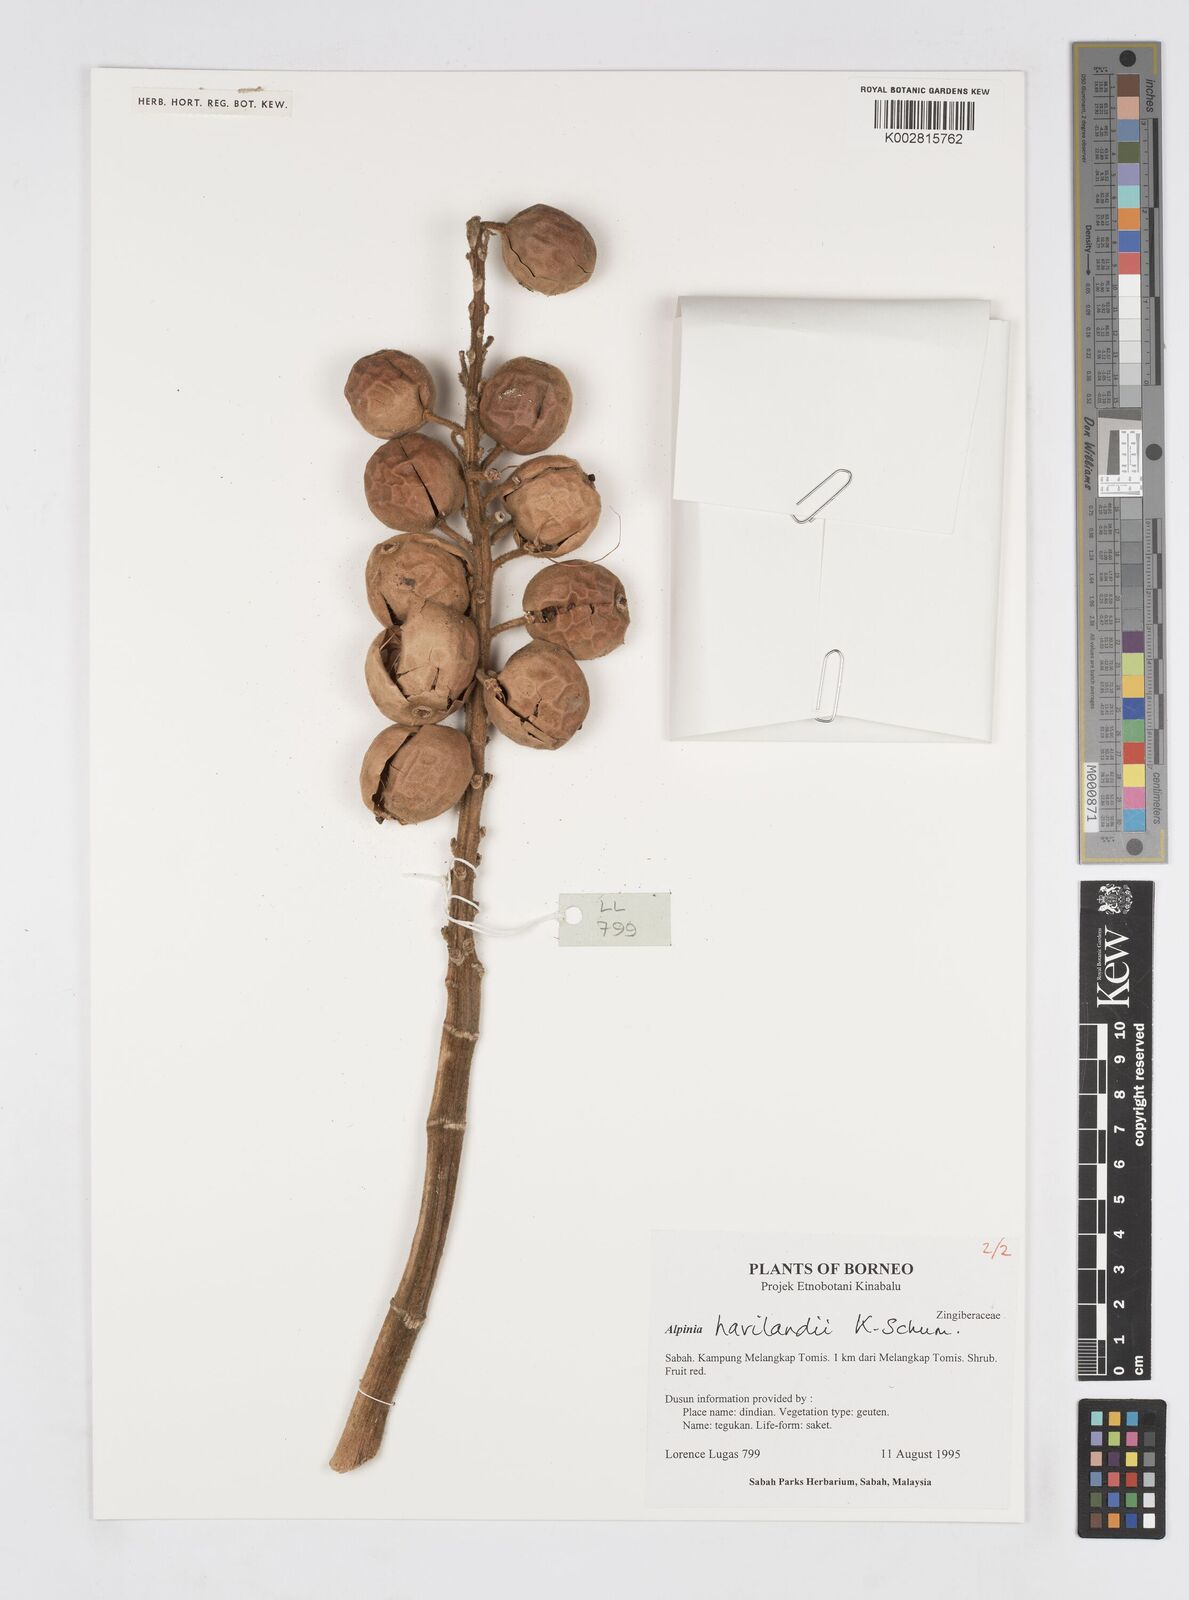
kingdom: Plantae
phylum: Tracheophyta
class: Liliopsida
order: Zingiberales
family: Zingiberaceae
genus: Alpinia
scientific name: Alpinia havilandii
